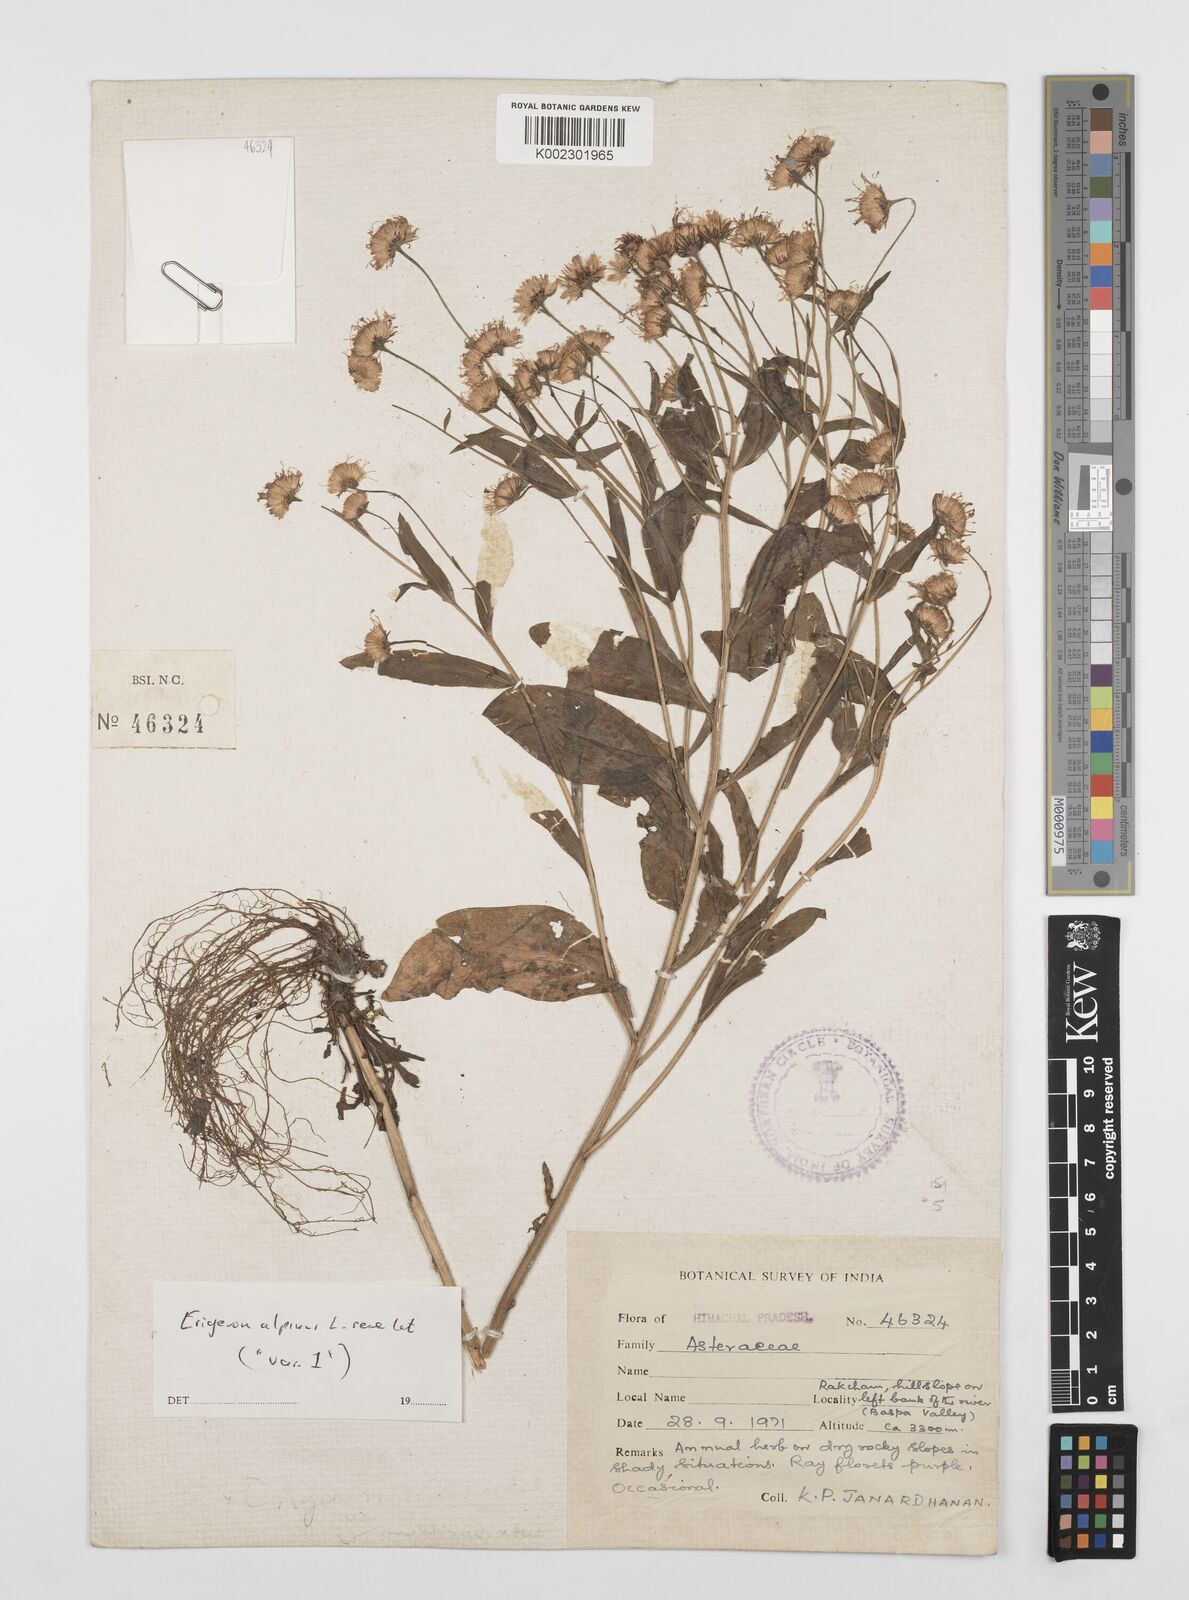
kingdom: Plantae
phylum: Tracheophyta
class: Magnoliopsida
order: Asterales
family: Asteraceae
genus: Erigeron
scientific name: Erigeron alpinus
